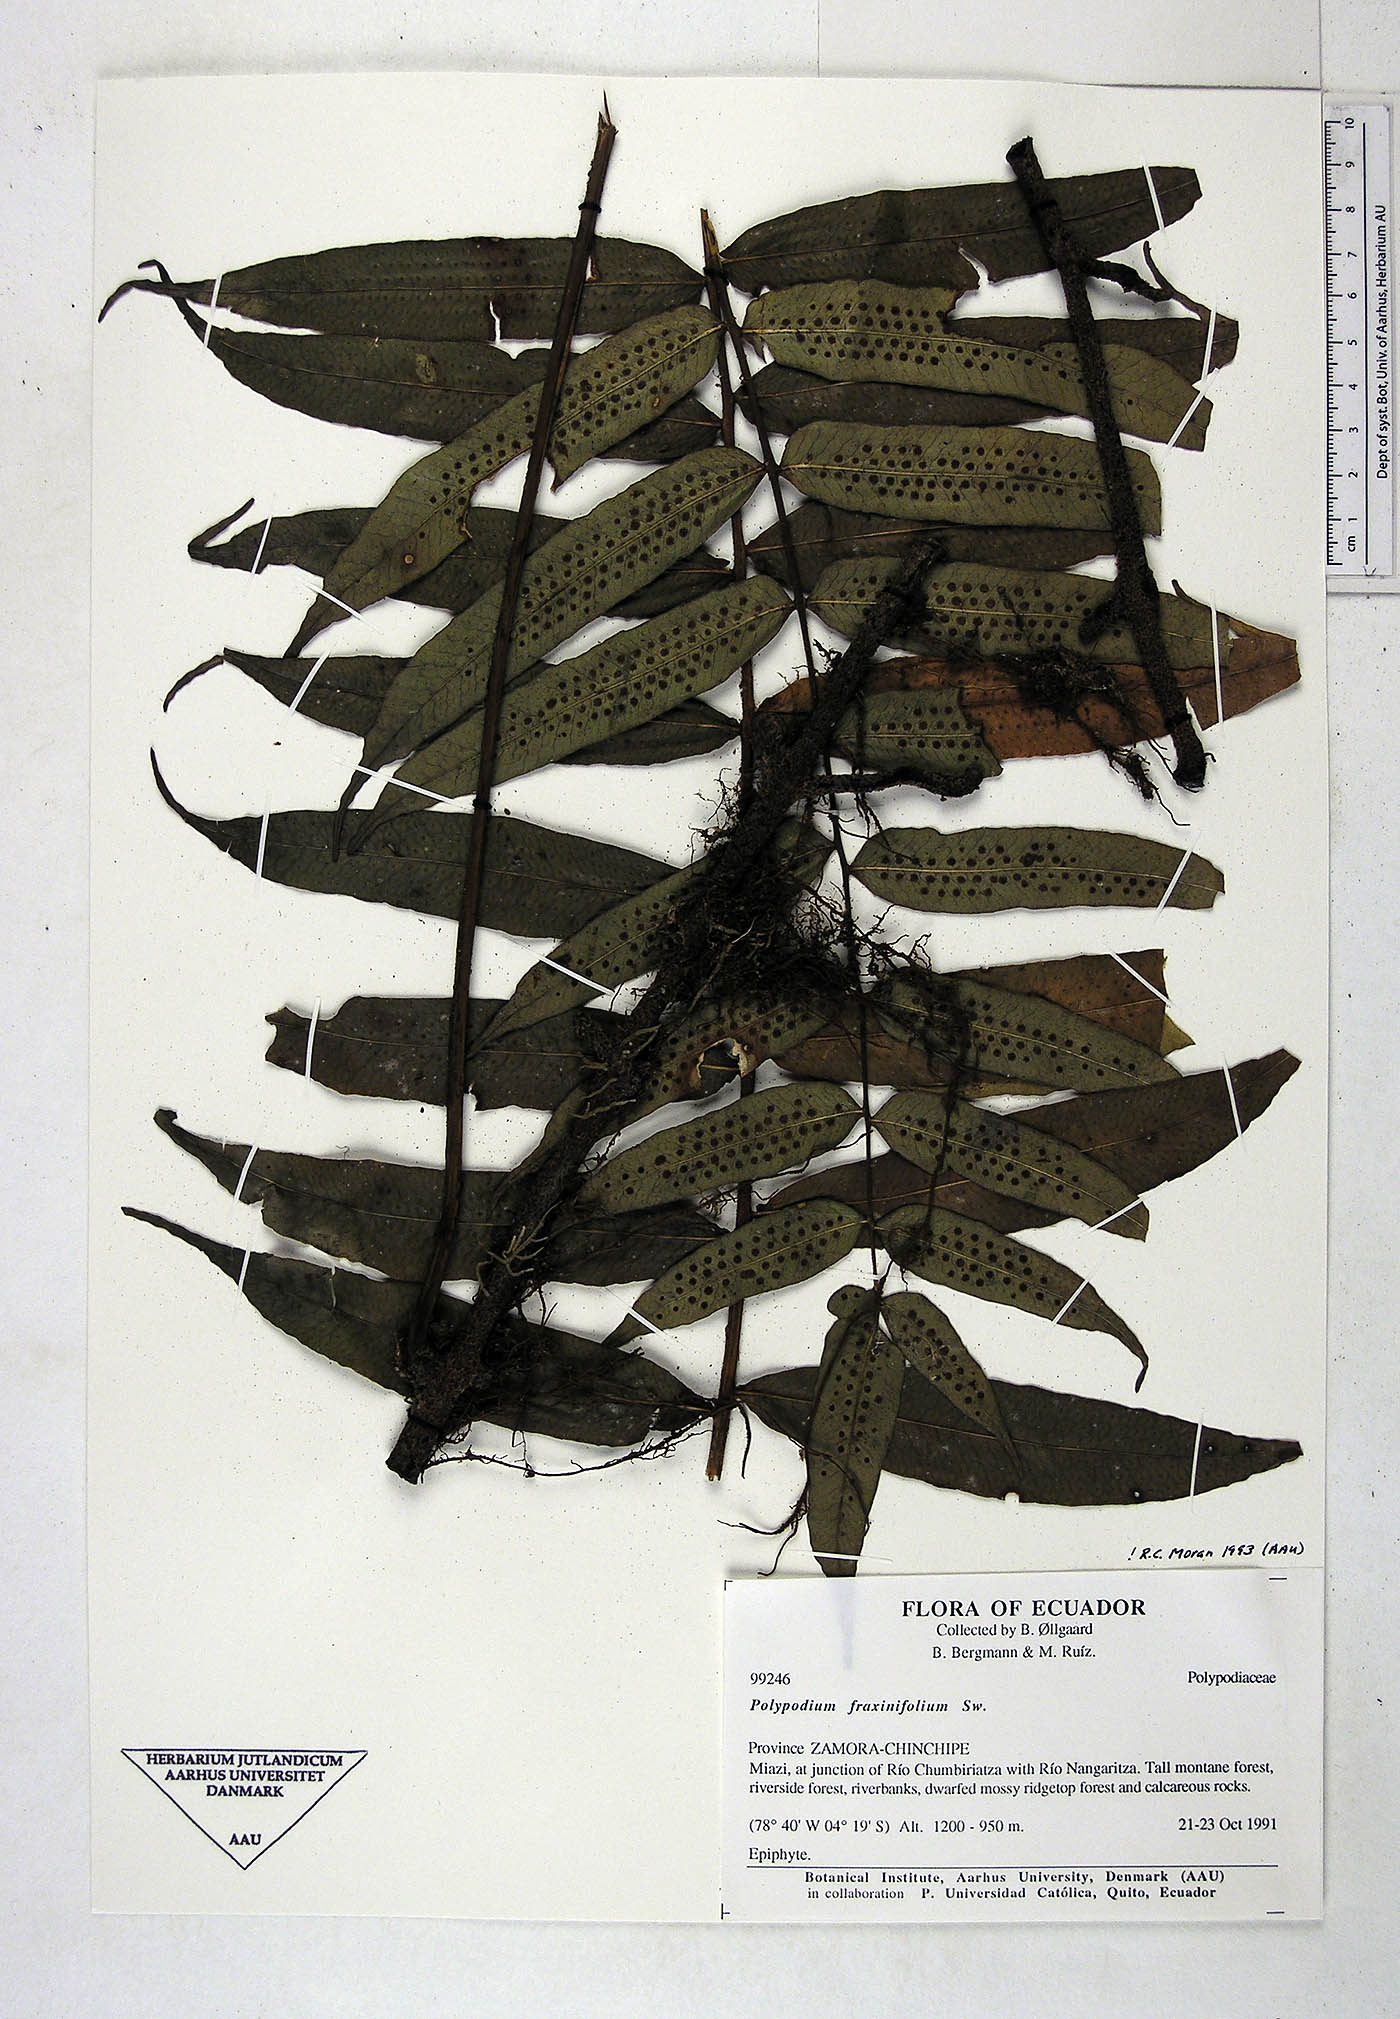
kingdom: Plantae
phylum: Tracheophyta
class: Polypodiopsida
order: Polypodiales
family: Polypodiaceae
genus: Serpocaulon
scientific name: Serpocaulon fraxinifolium
